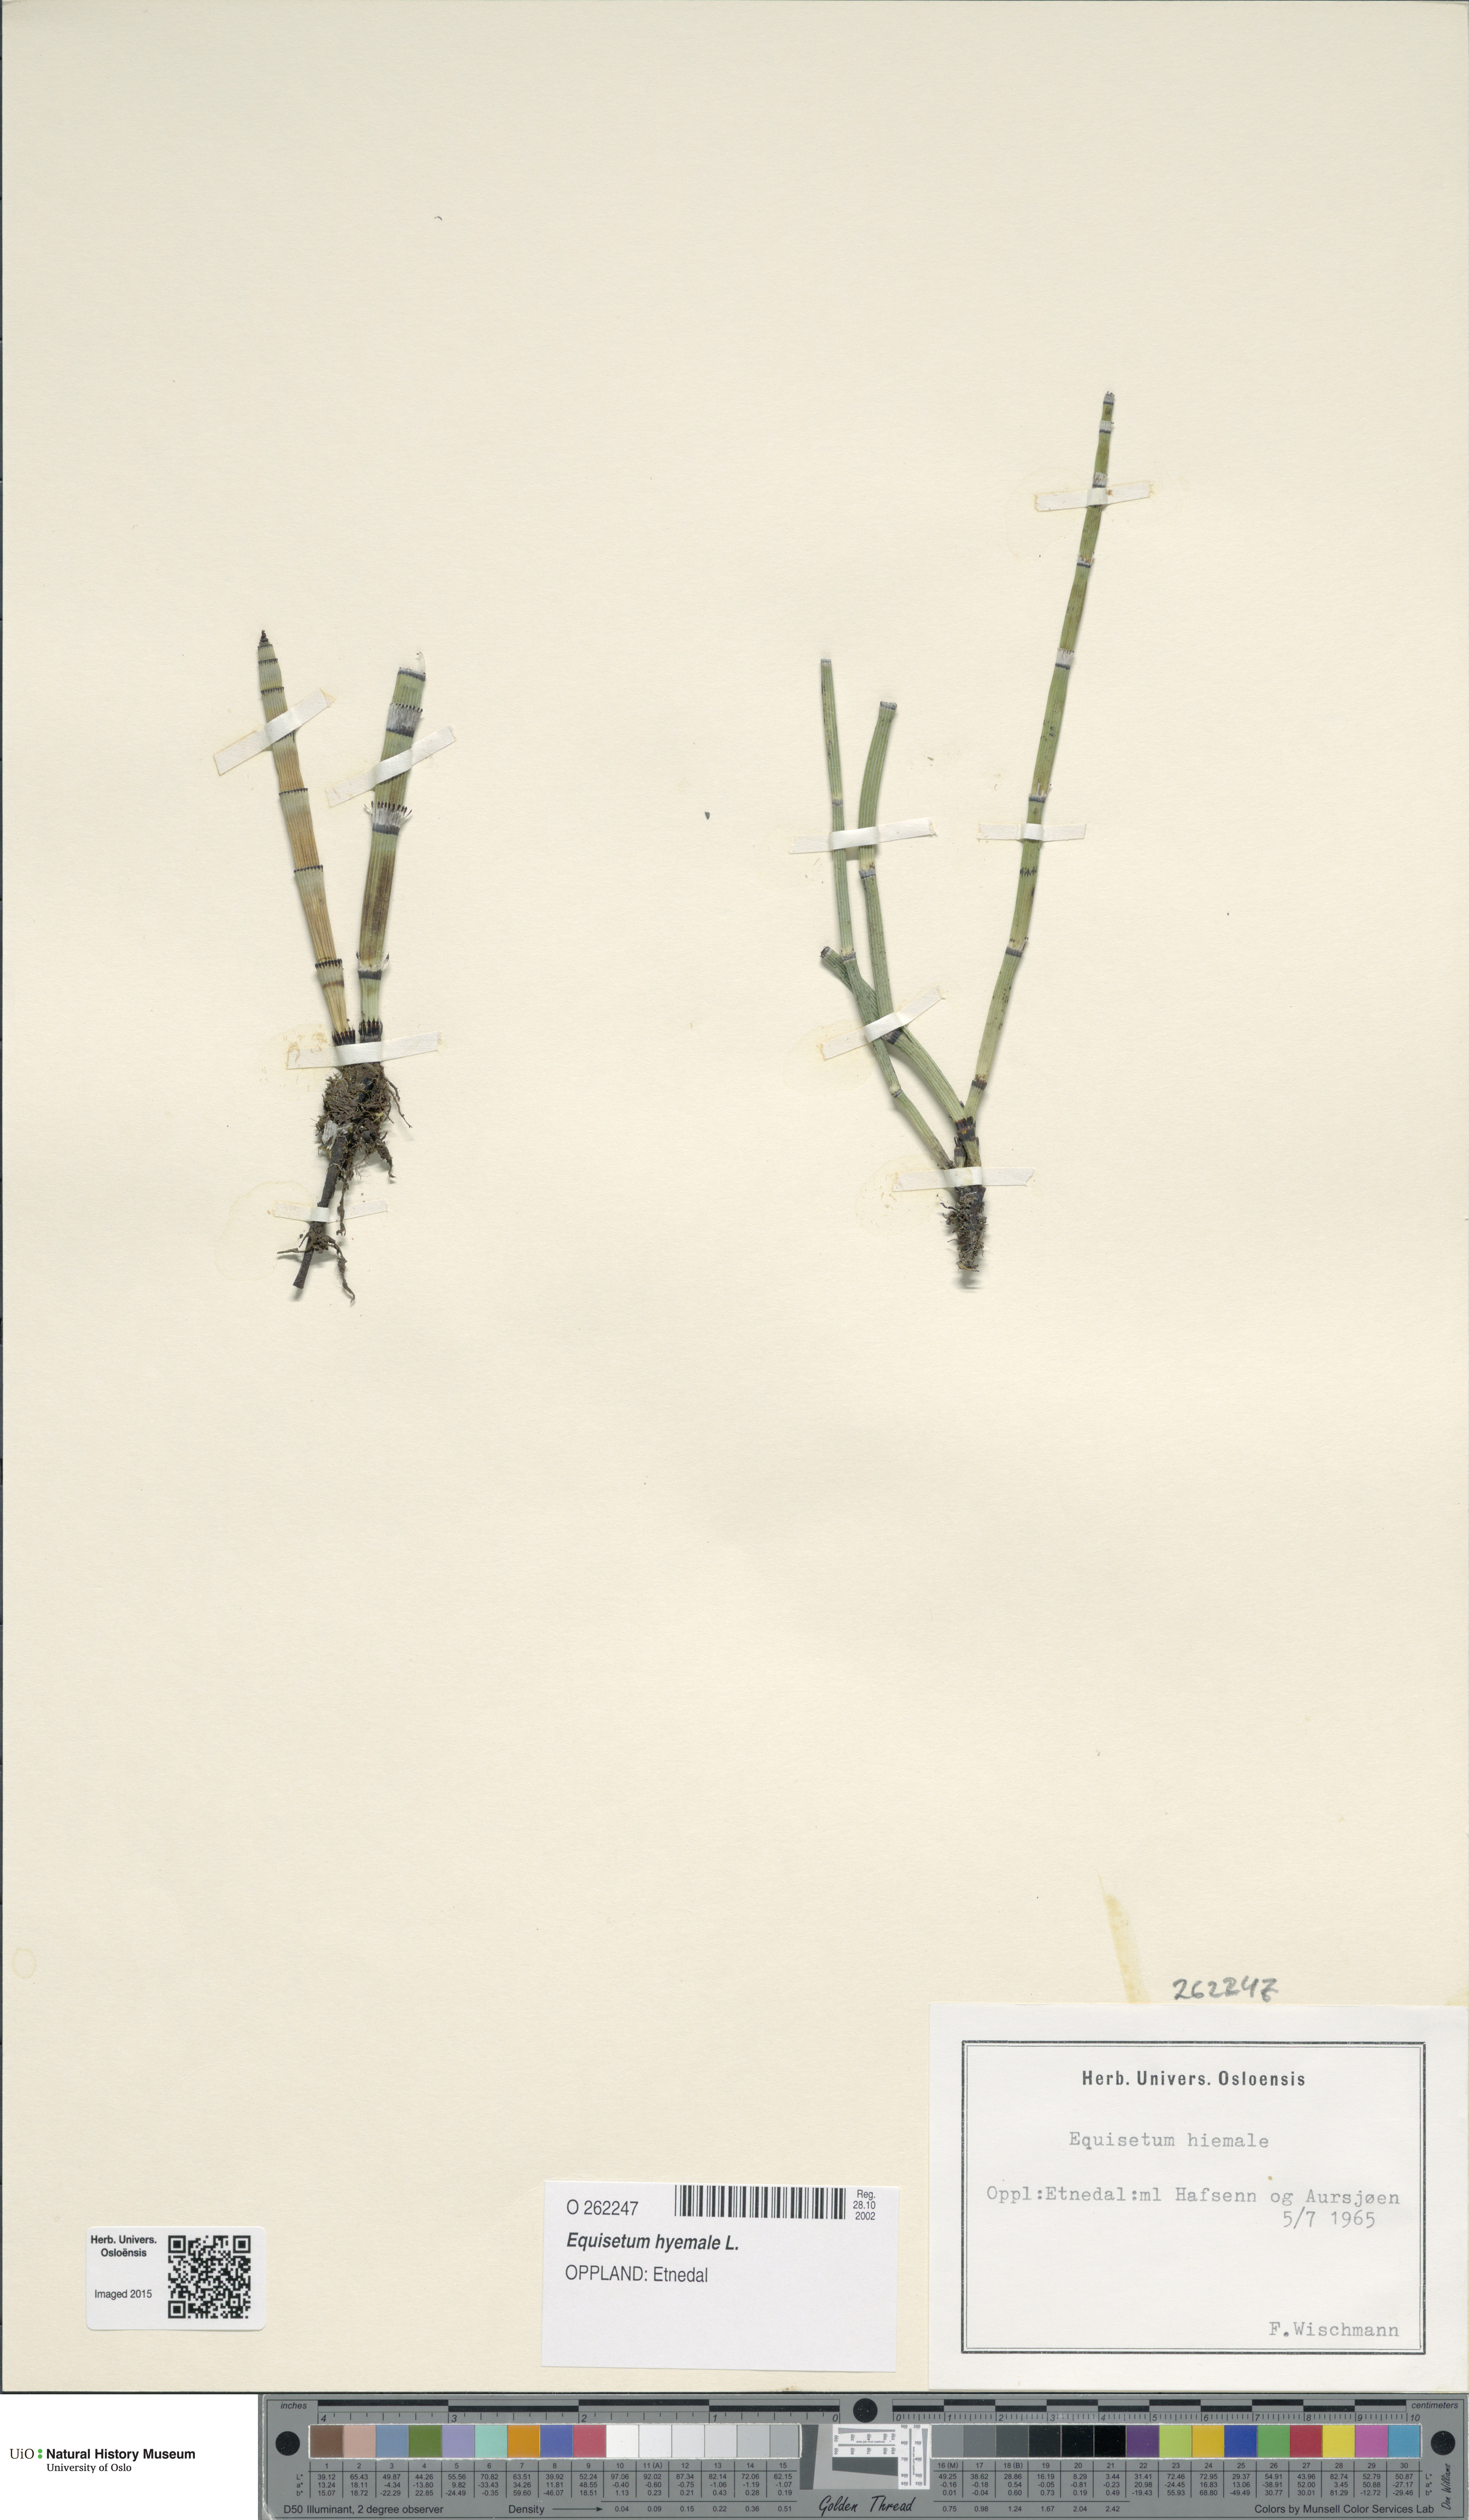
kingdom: Plantae
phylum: Tracheophyta
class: Polypodiopsida
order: Equisetales
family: Equisetaceae
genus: Equisetum
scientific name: Equisetum hyemale
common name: Rough horsetail
